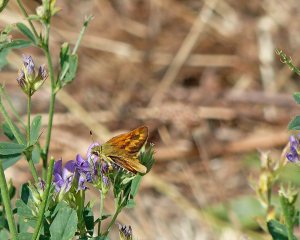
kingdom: Animalia
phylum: Arthropoda
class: Insecta
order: Lepidoptera
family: Hesperiidae
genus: Ochlodes
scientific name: Ochlodes sylvanoides
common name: Woodland Skipper
